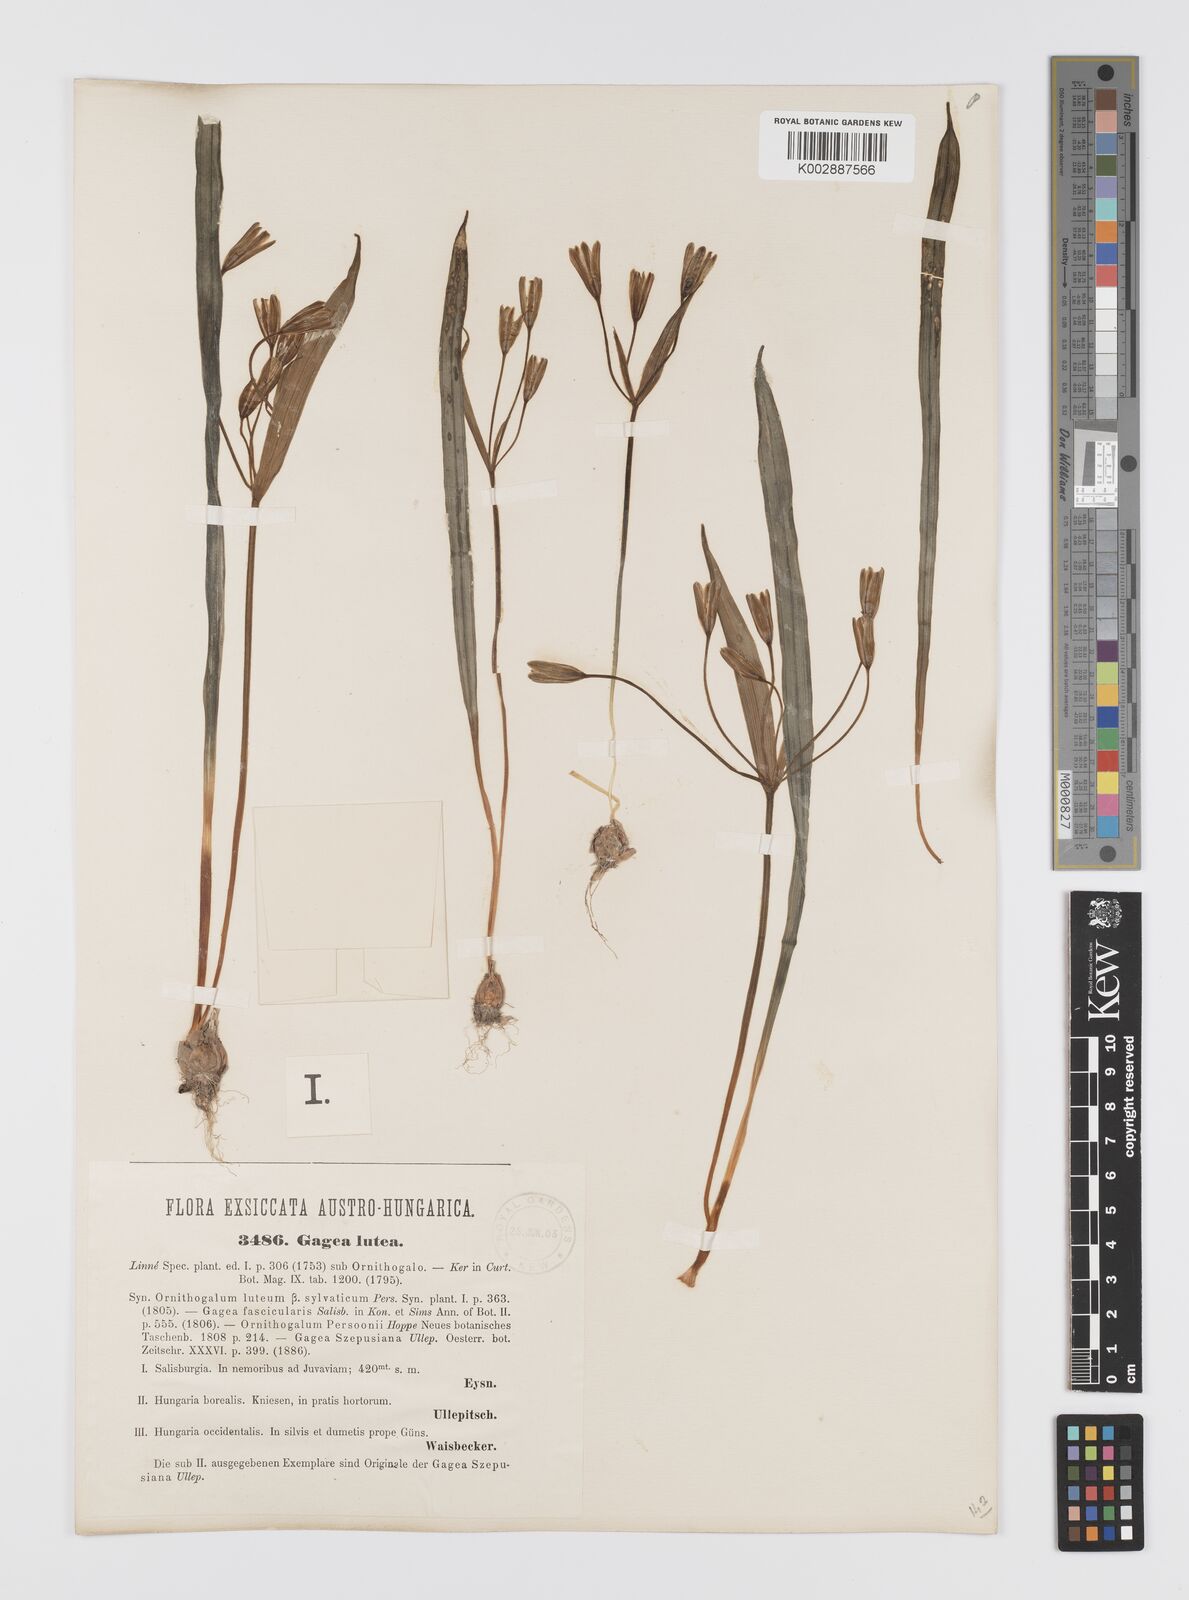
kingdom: Plantae
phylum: Tracheophyta
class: Liliopsida
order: Liliales
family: Liliaceae
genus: Gagea
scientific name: Gagea lutea
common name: Yellow star-of-bethlehem
